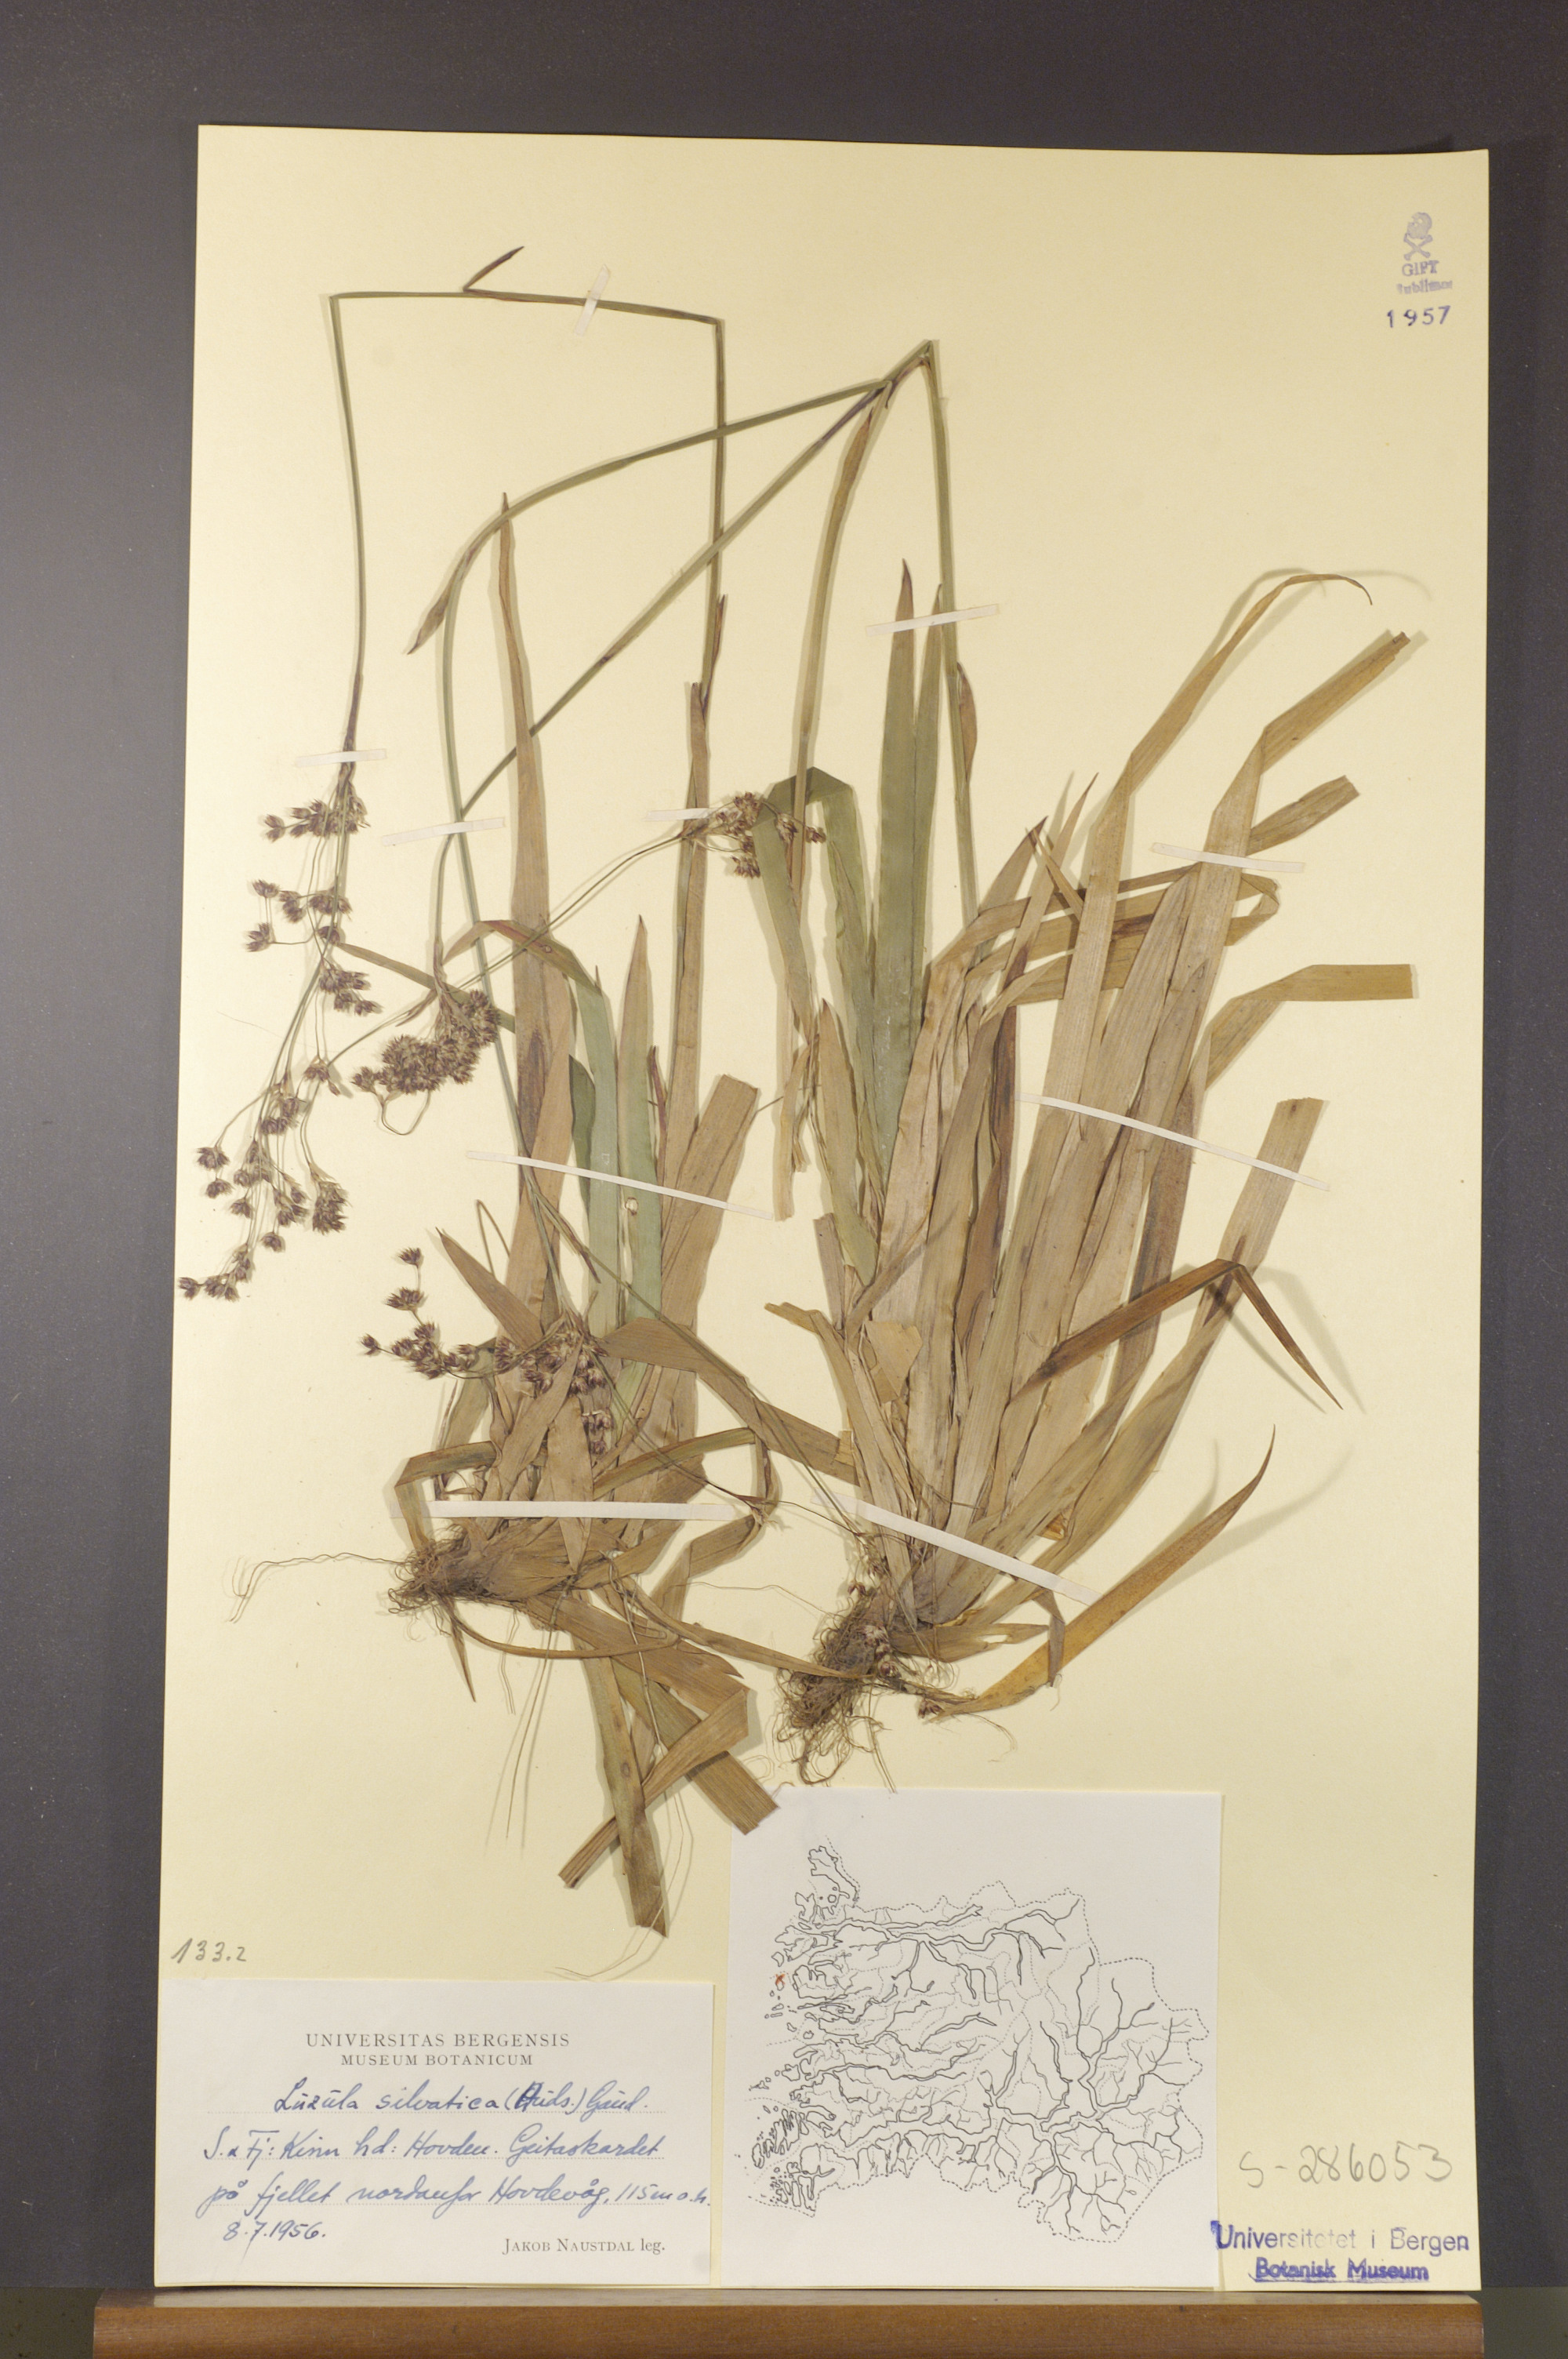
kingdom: Plantae
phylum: Tracheophyta
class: Liliopsida
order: Poales
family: Juncaceae
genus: Luzula
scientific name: Luzula sylvatica
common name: Great wood-rush
